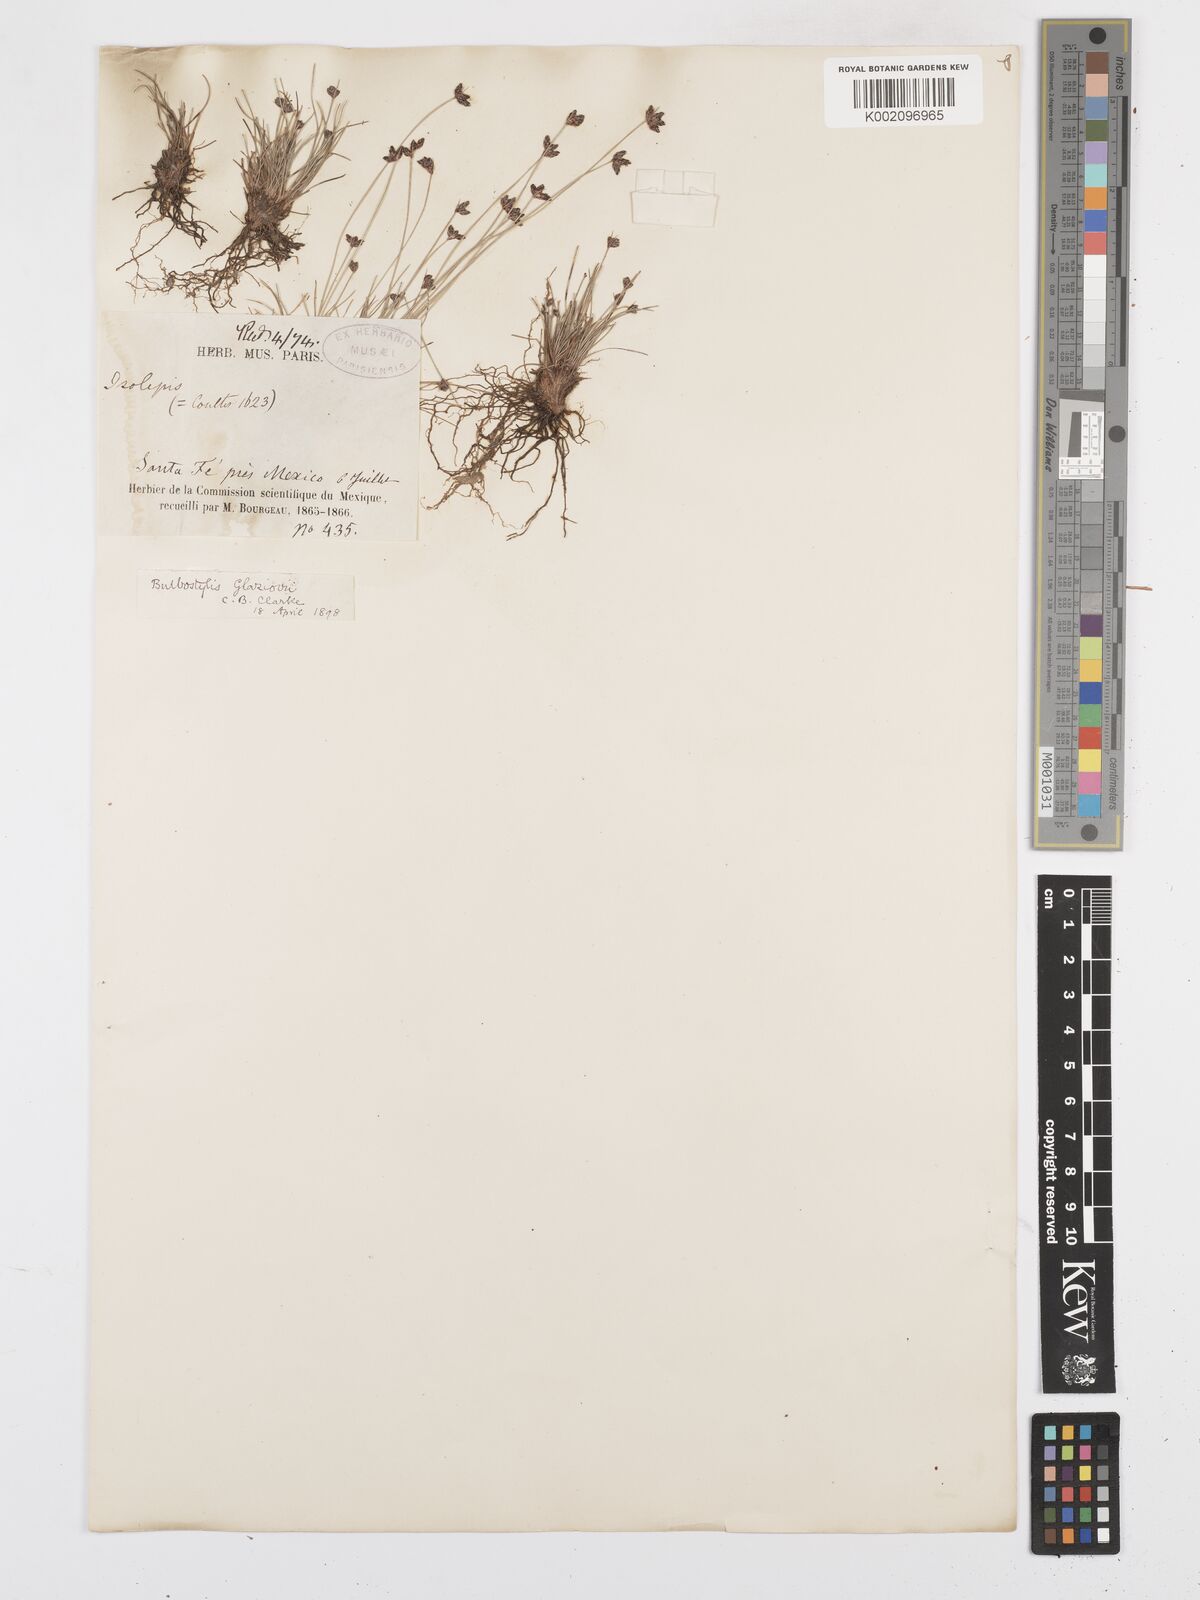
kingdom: Plantae
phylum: Tracheophyta
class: Liliopsida
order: Poales
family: Cyperaceae
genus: Bulbostylis
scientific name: Bulbostylis juncoides
